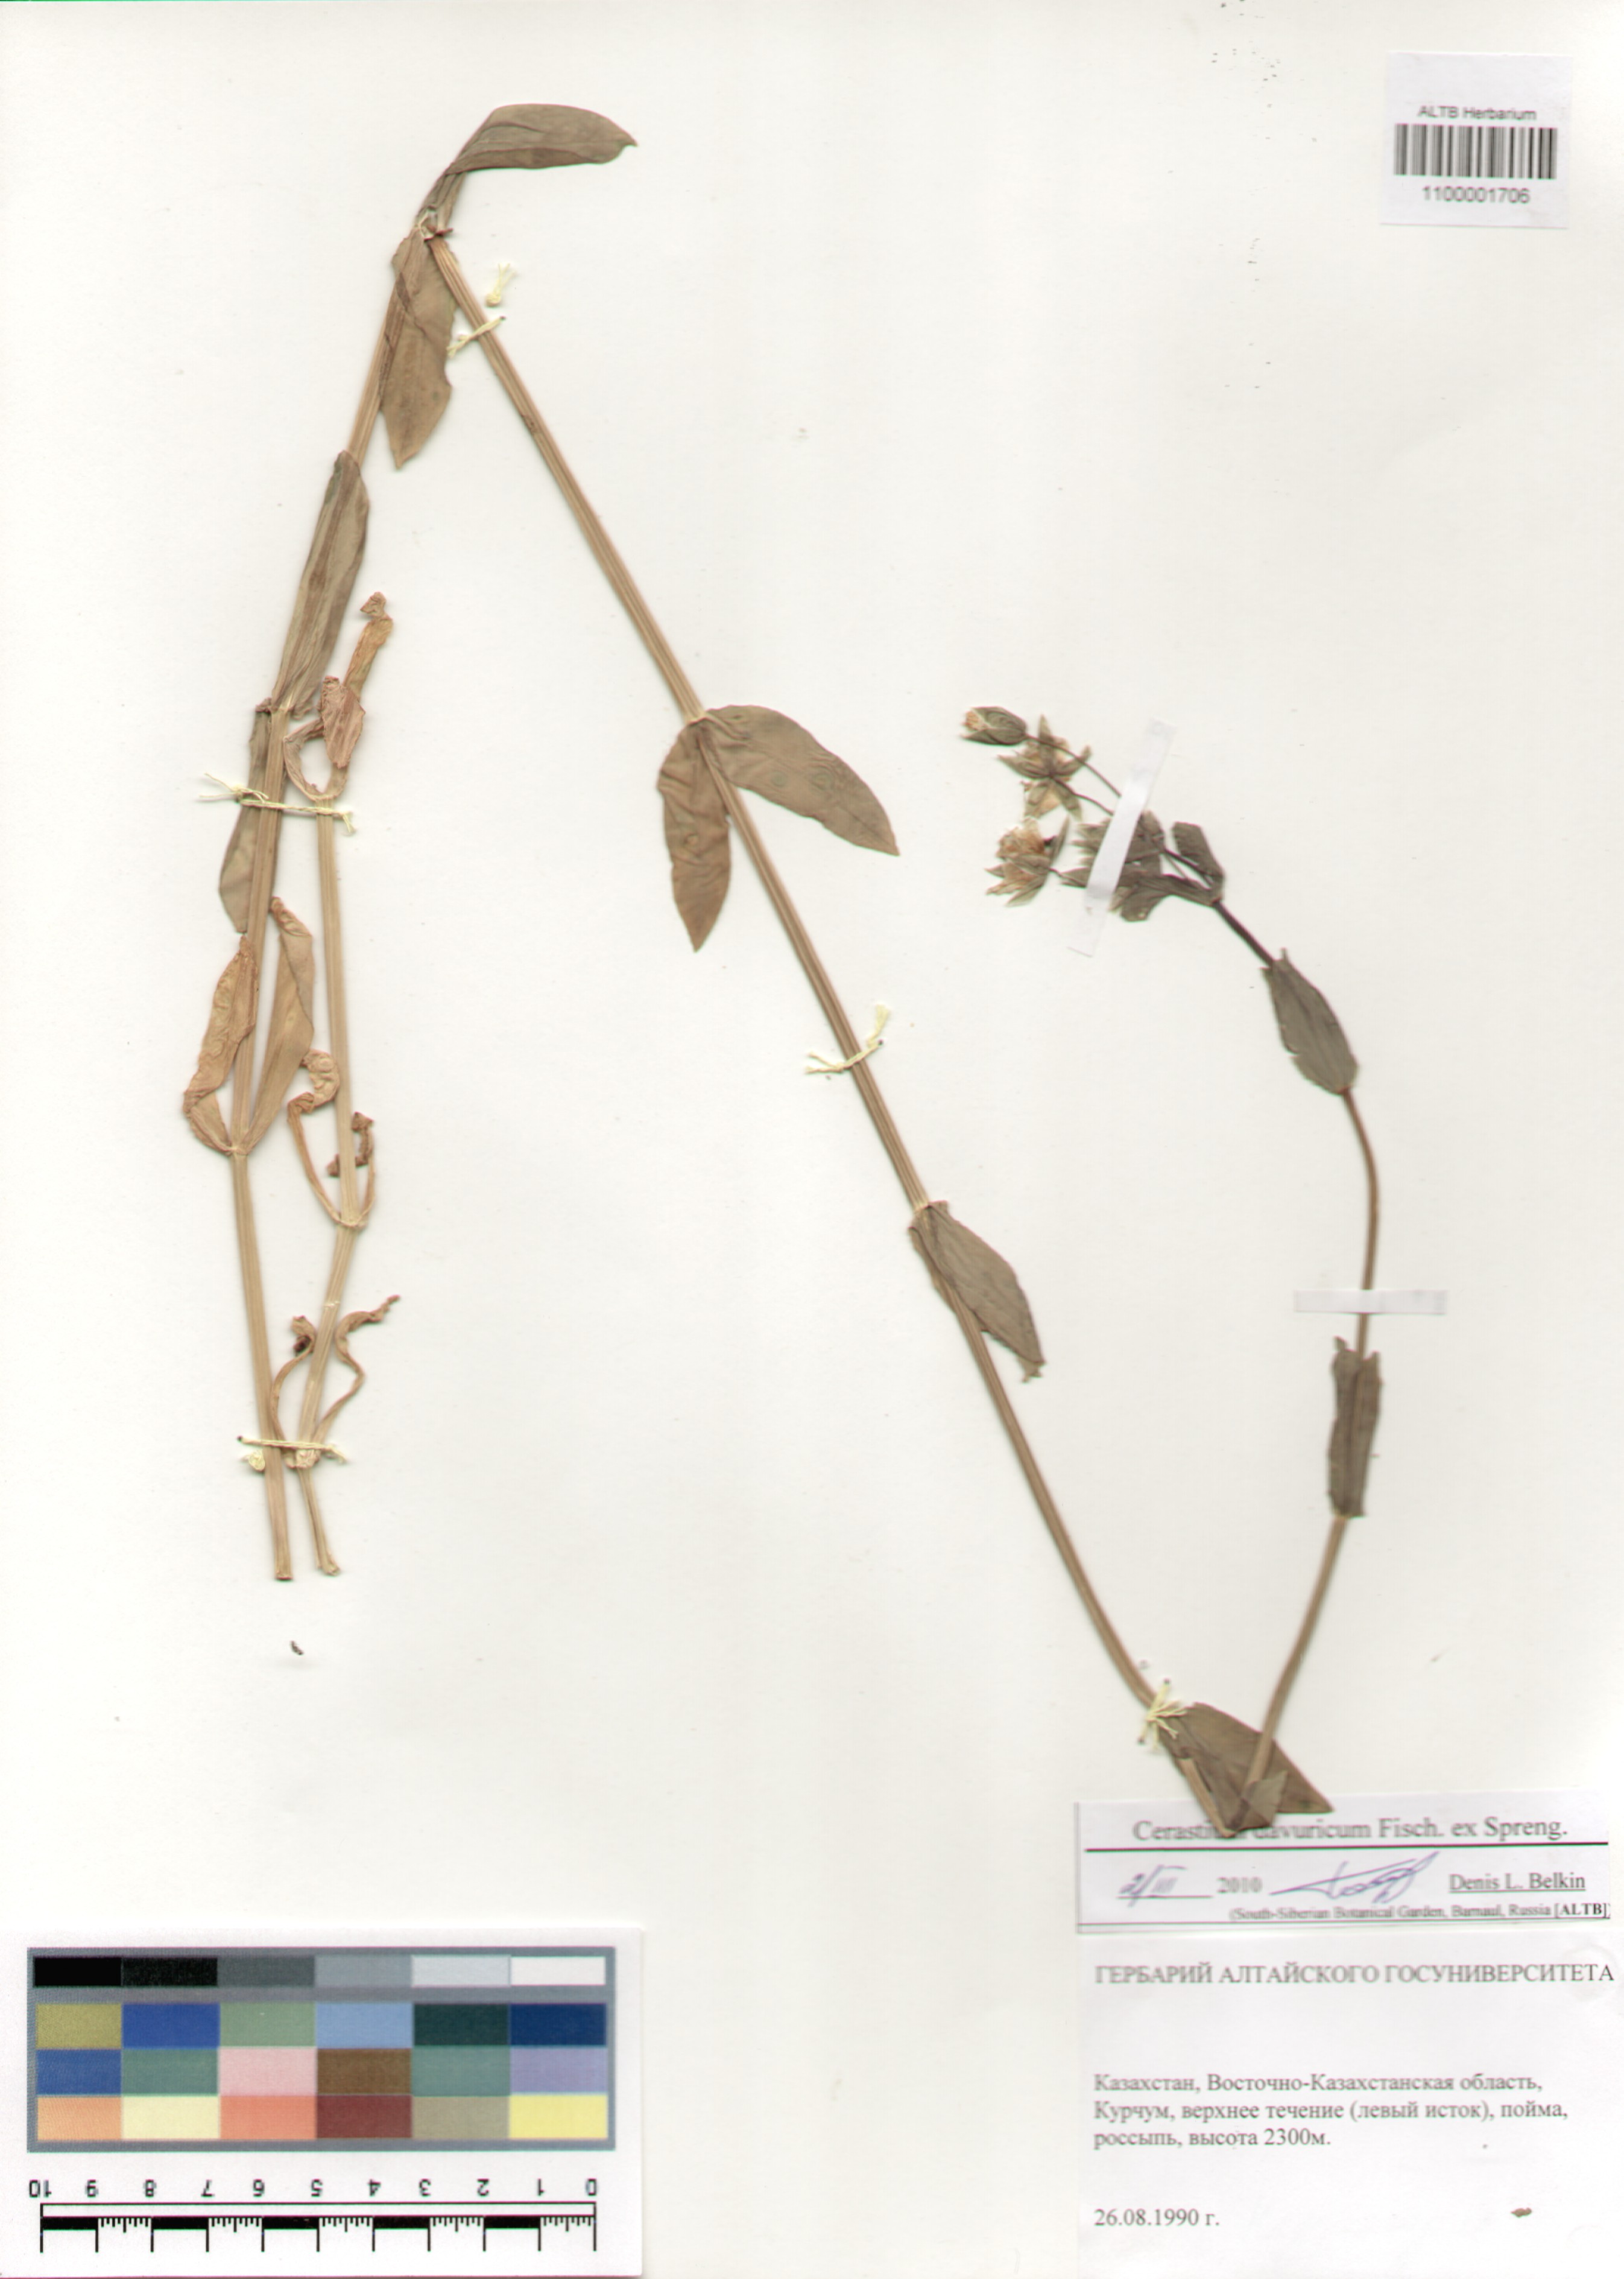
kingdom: Plantae
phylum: Tracheophyta
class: Magnoliopsida
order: Caryophyllales
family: Caryophyllaceae
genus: Dichodon
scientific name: Dichodon davuricum
